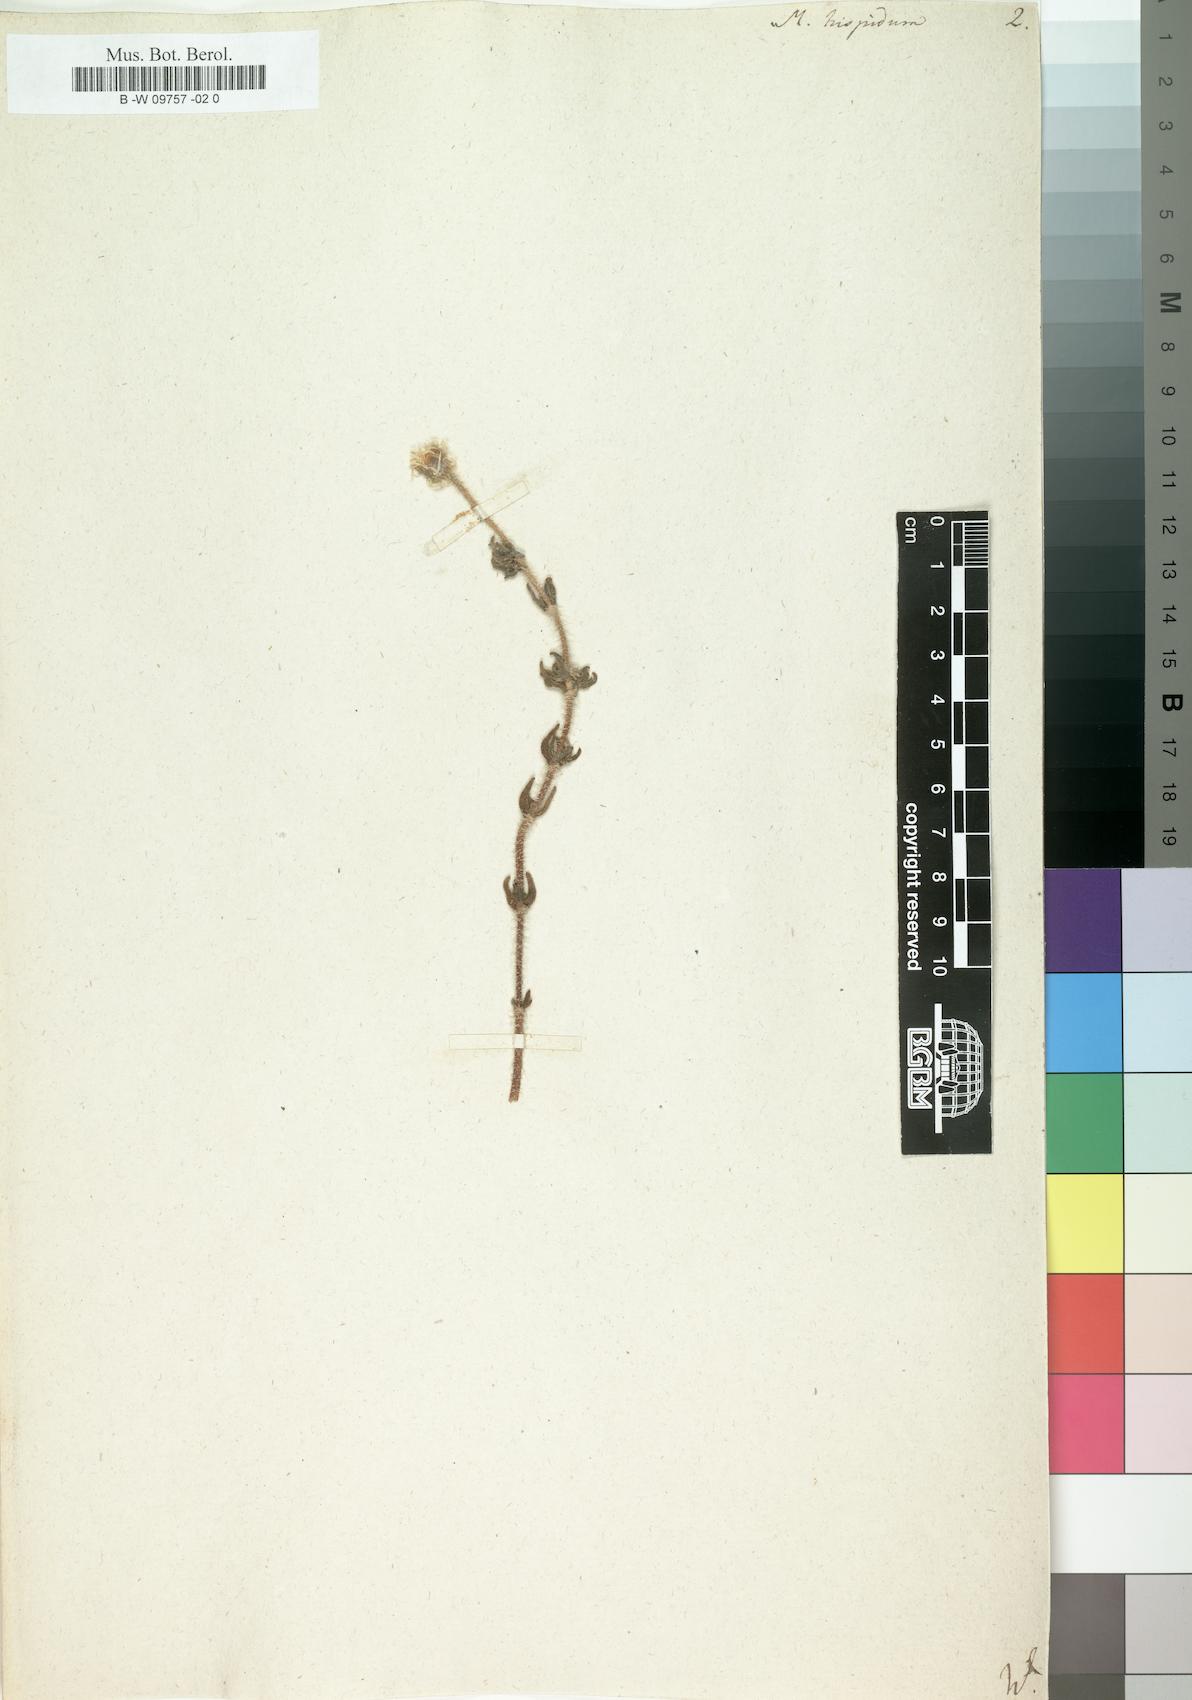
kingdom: Plantae
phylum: Tracheophyta
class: Magnoliopsida
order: Caryophyllales
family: Aizoaceae
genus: Drosanthemum
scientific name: Drosanthemum hispidum
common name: Hairy dewflower
